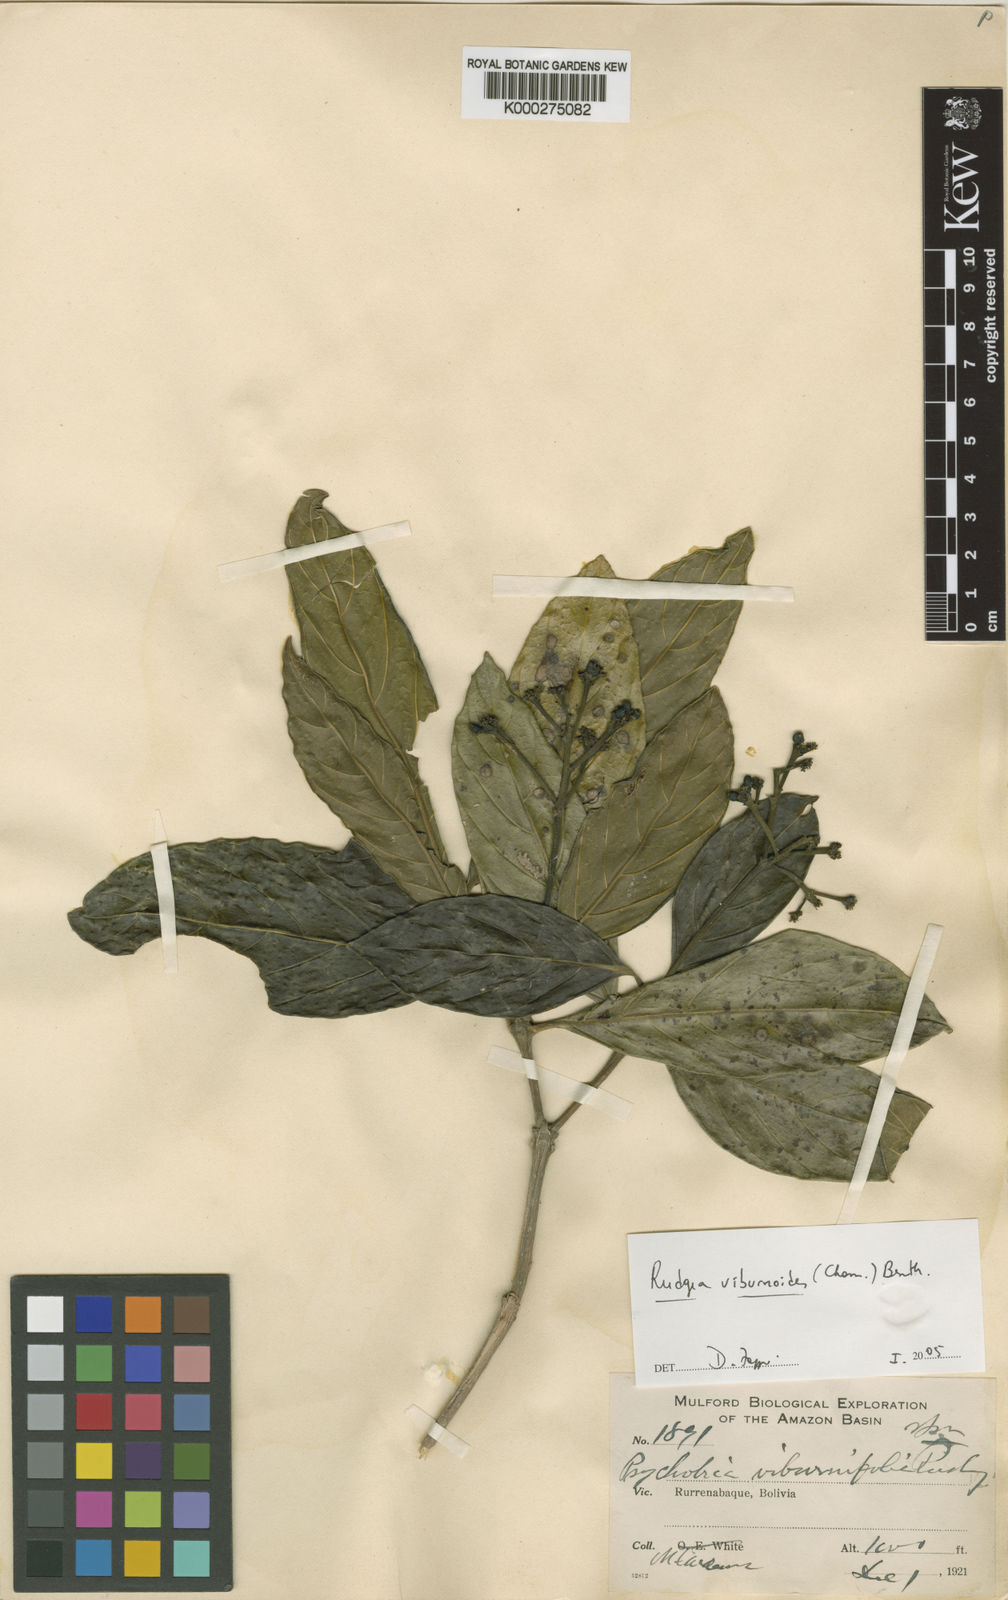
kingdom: Plantae
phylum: Tracheophyta
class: Magnoliopsida
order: Gentianales
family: Rubiaceae
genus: Rudgea
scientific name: Rudgea viburnoides
